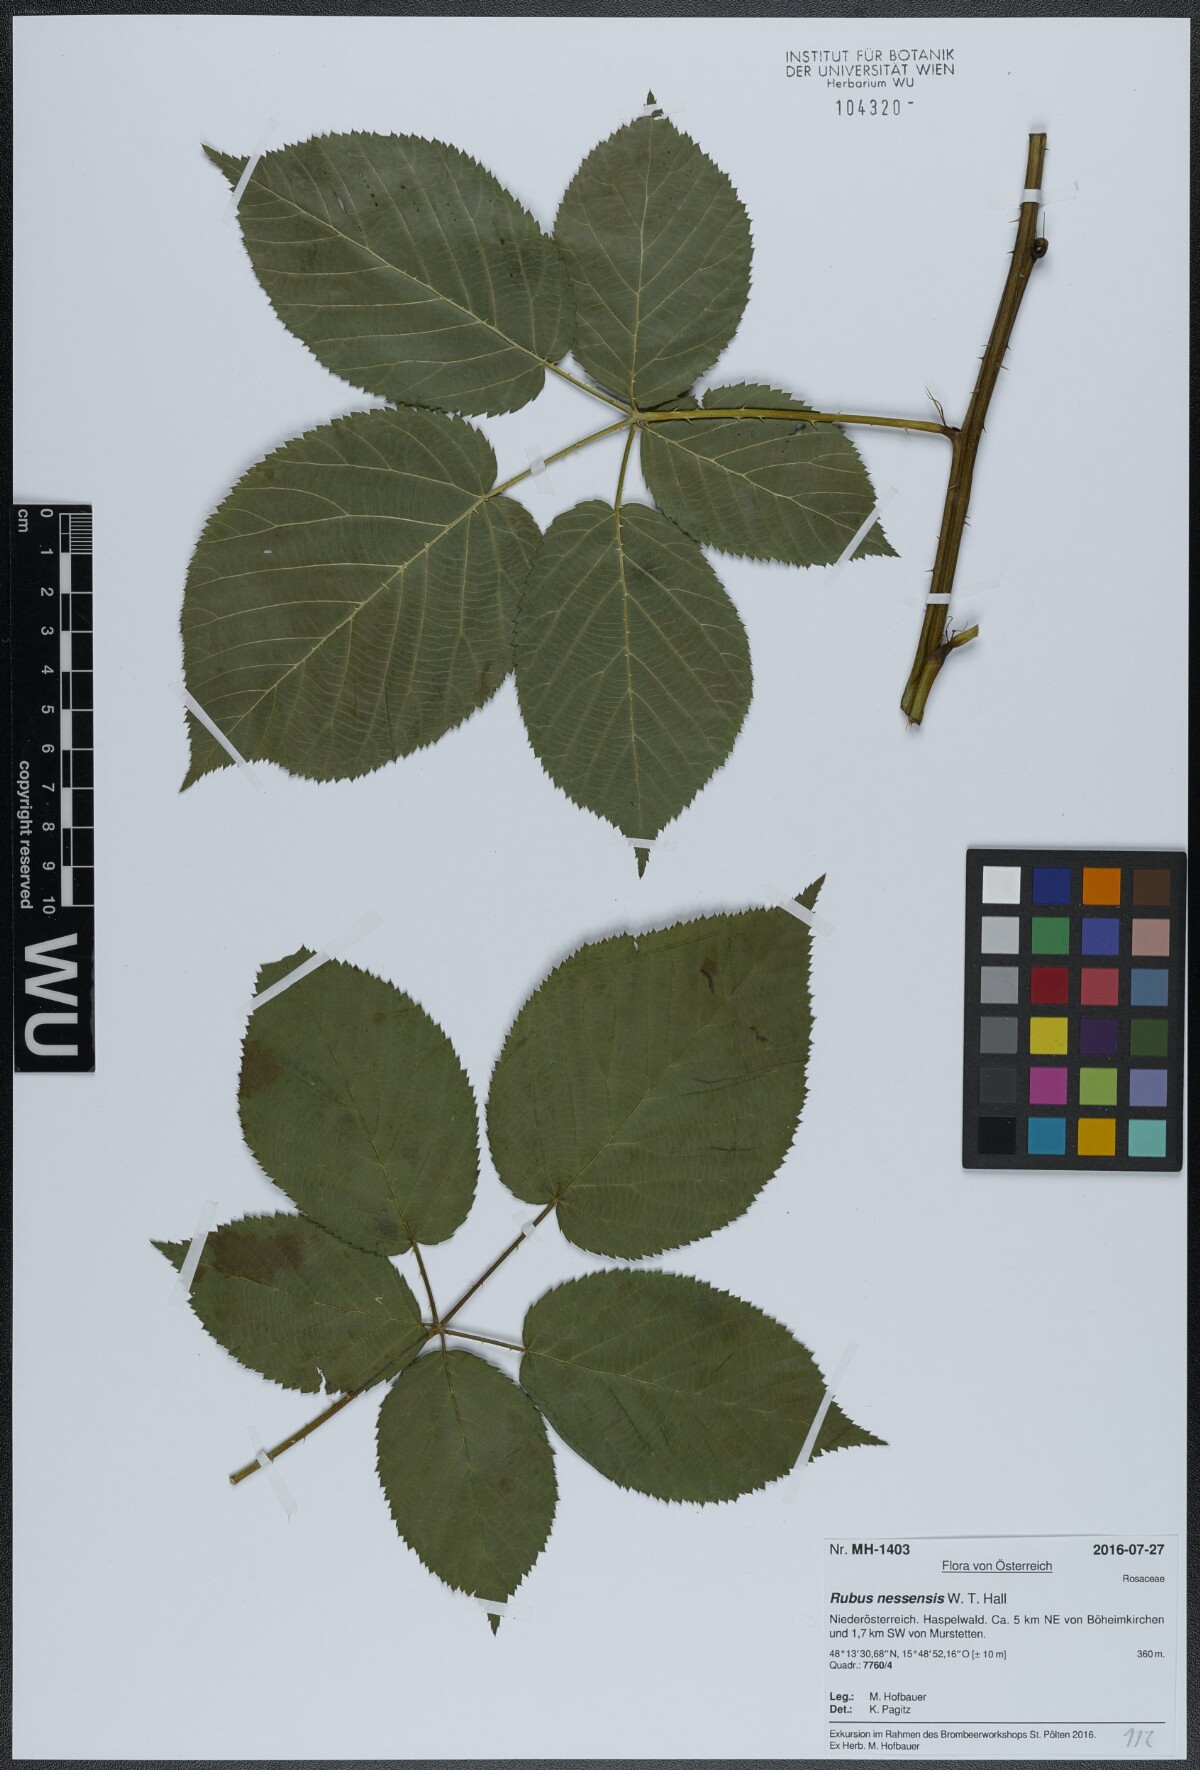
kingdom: Plantae
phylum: Tracheophyta
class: Magnoliopsida
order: Rosales
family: Rosaceae
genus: Rubus
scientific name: Rubus polonicus
